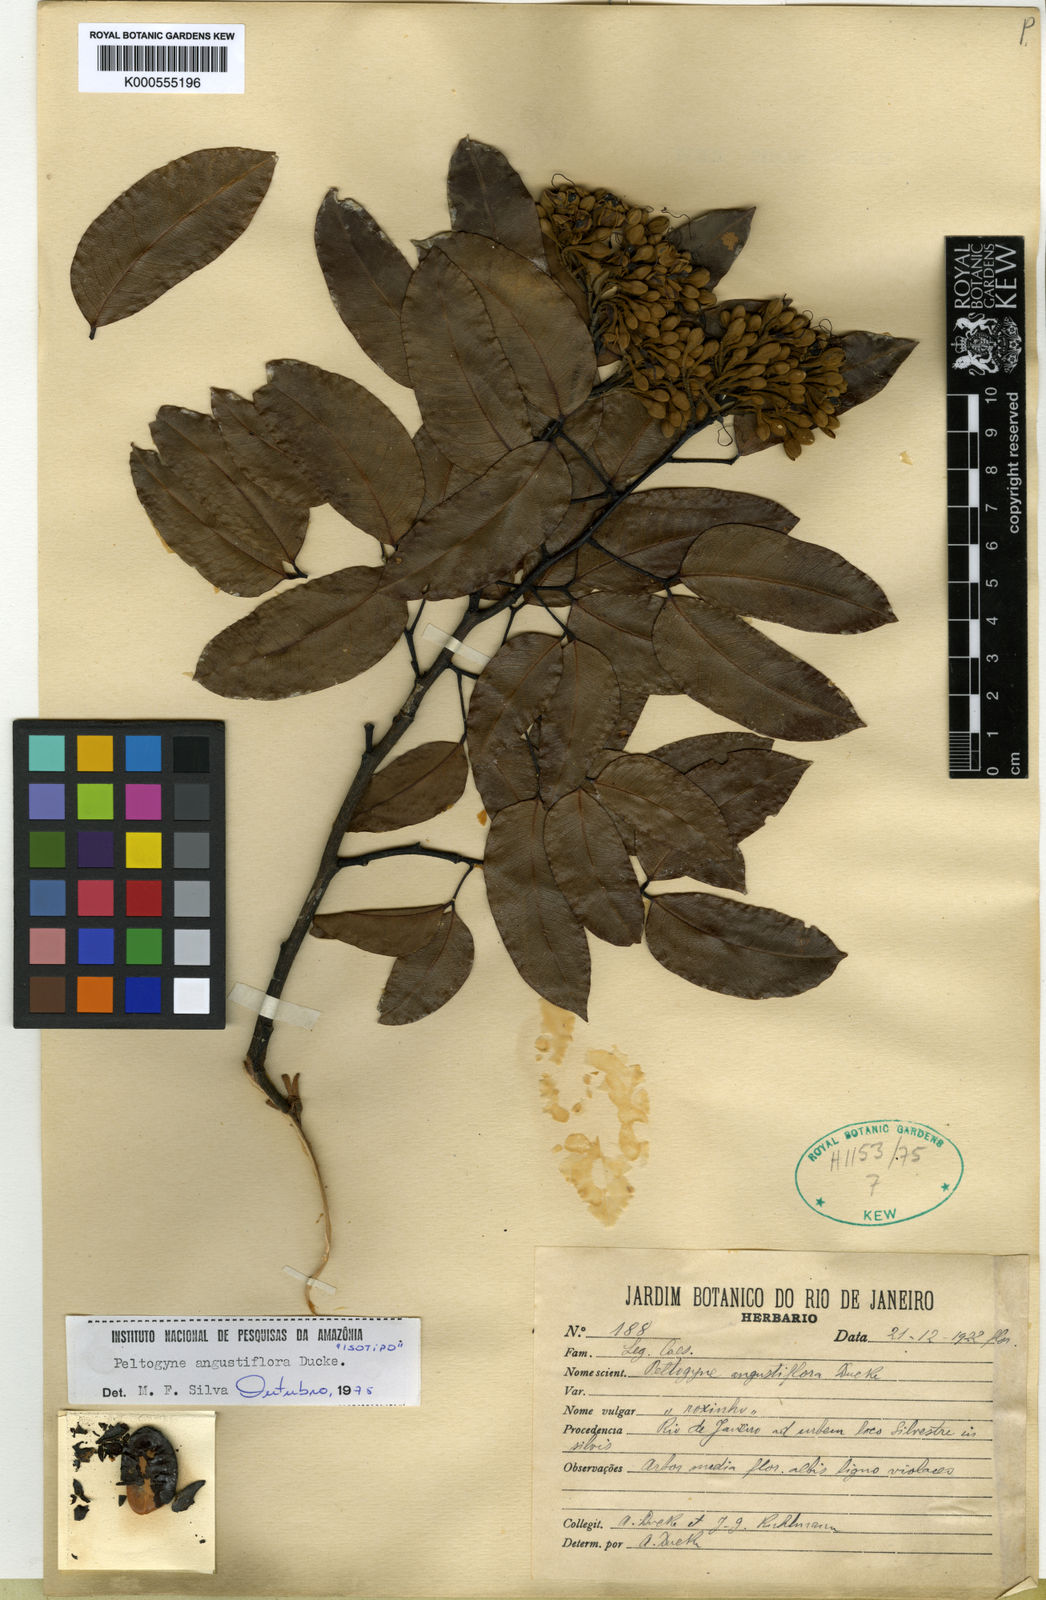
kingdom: Plantae
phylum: Tracheophyta
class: Magnoliopsida
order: Fabales
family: Fabaceae
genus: Peltogyne
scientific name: Peltogyne angustiflora
